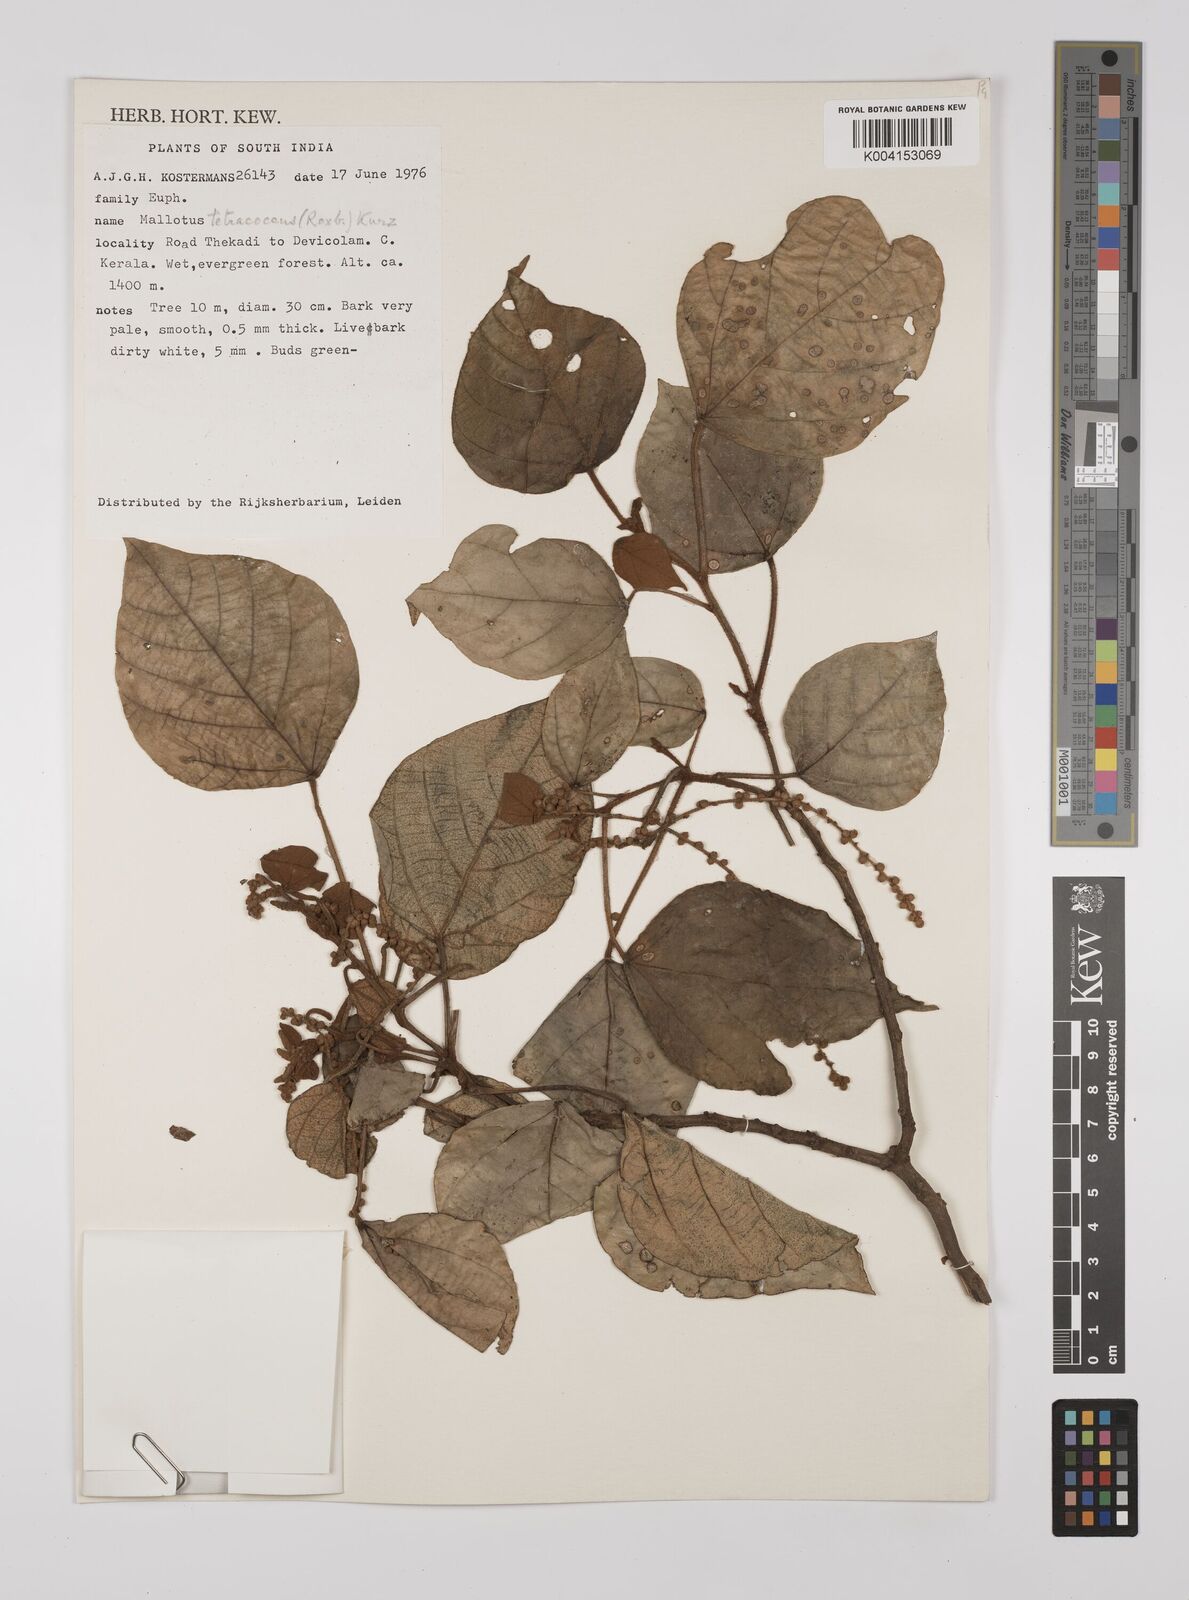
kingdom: Plantae
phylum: Tracheophyta
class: Magnoliopsida
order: Malpighiales
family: Euphorbiaceae
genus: Mallotus
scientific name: Mallotus tetracoccus
